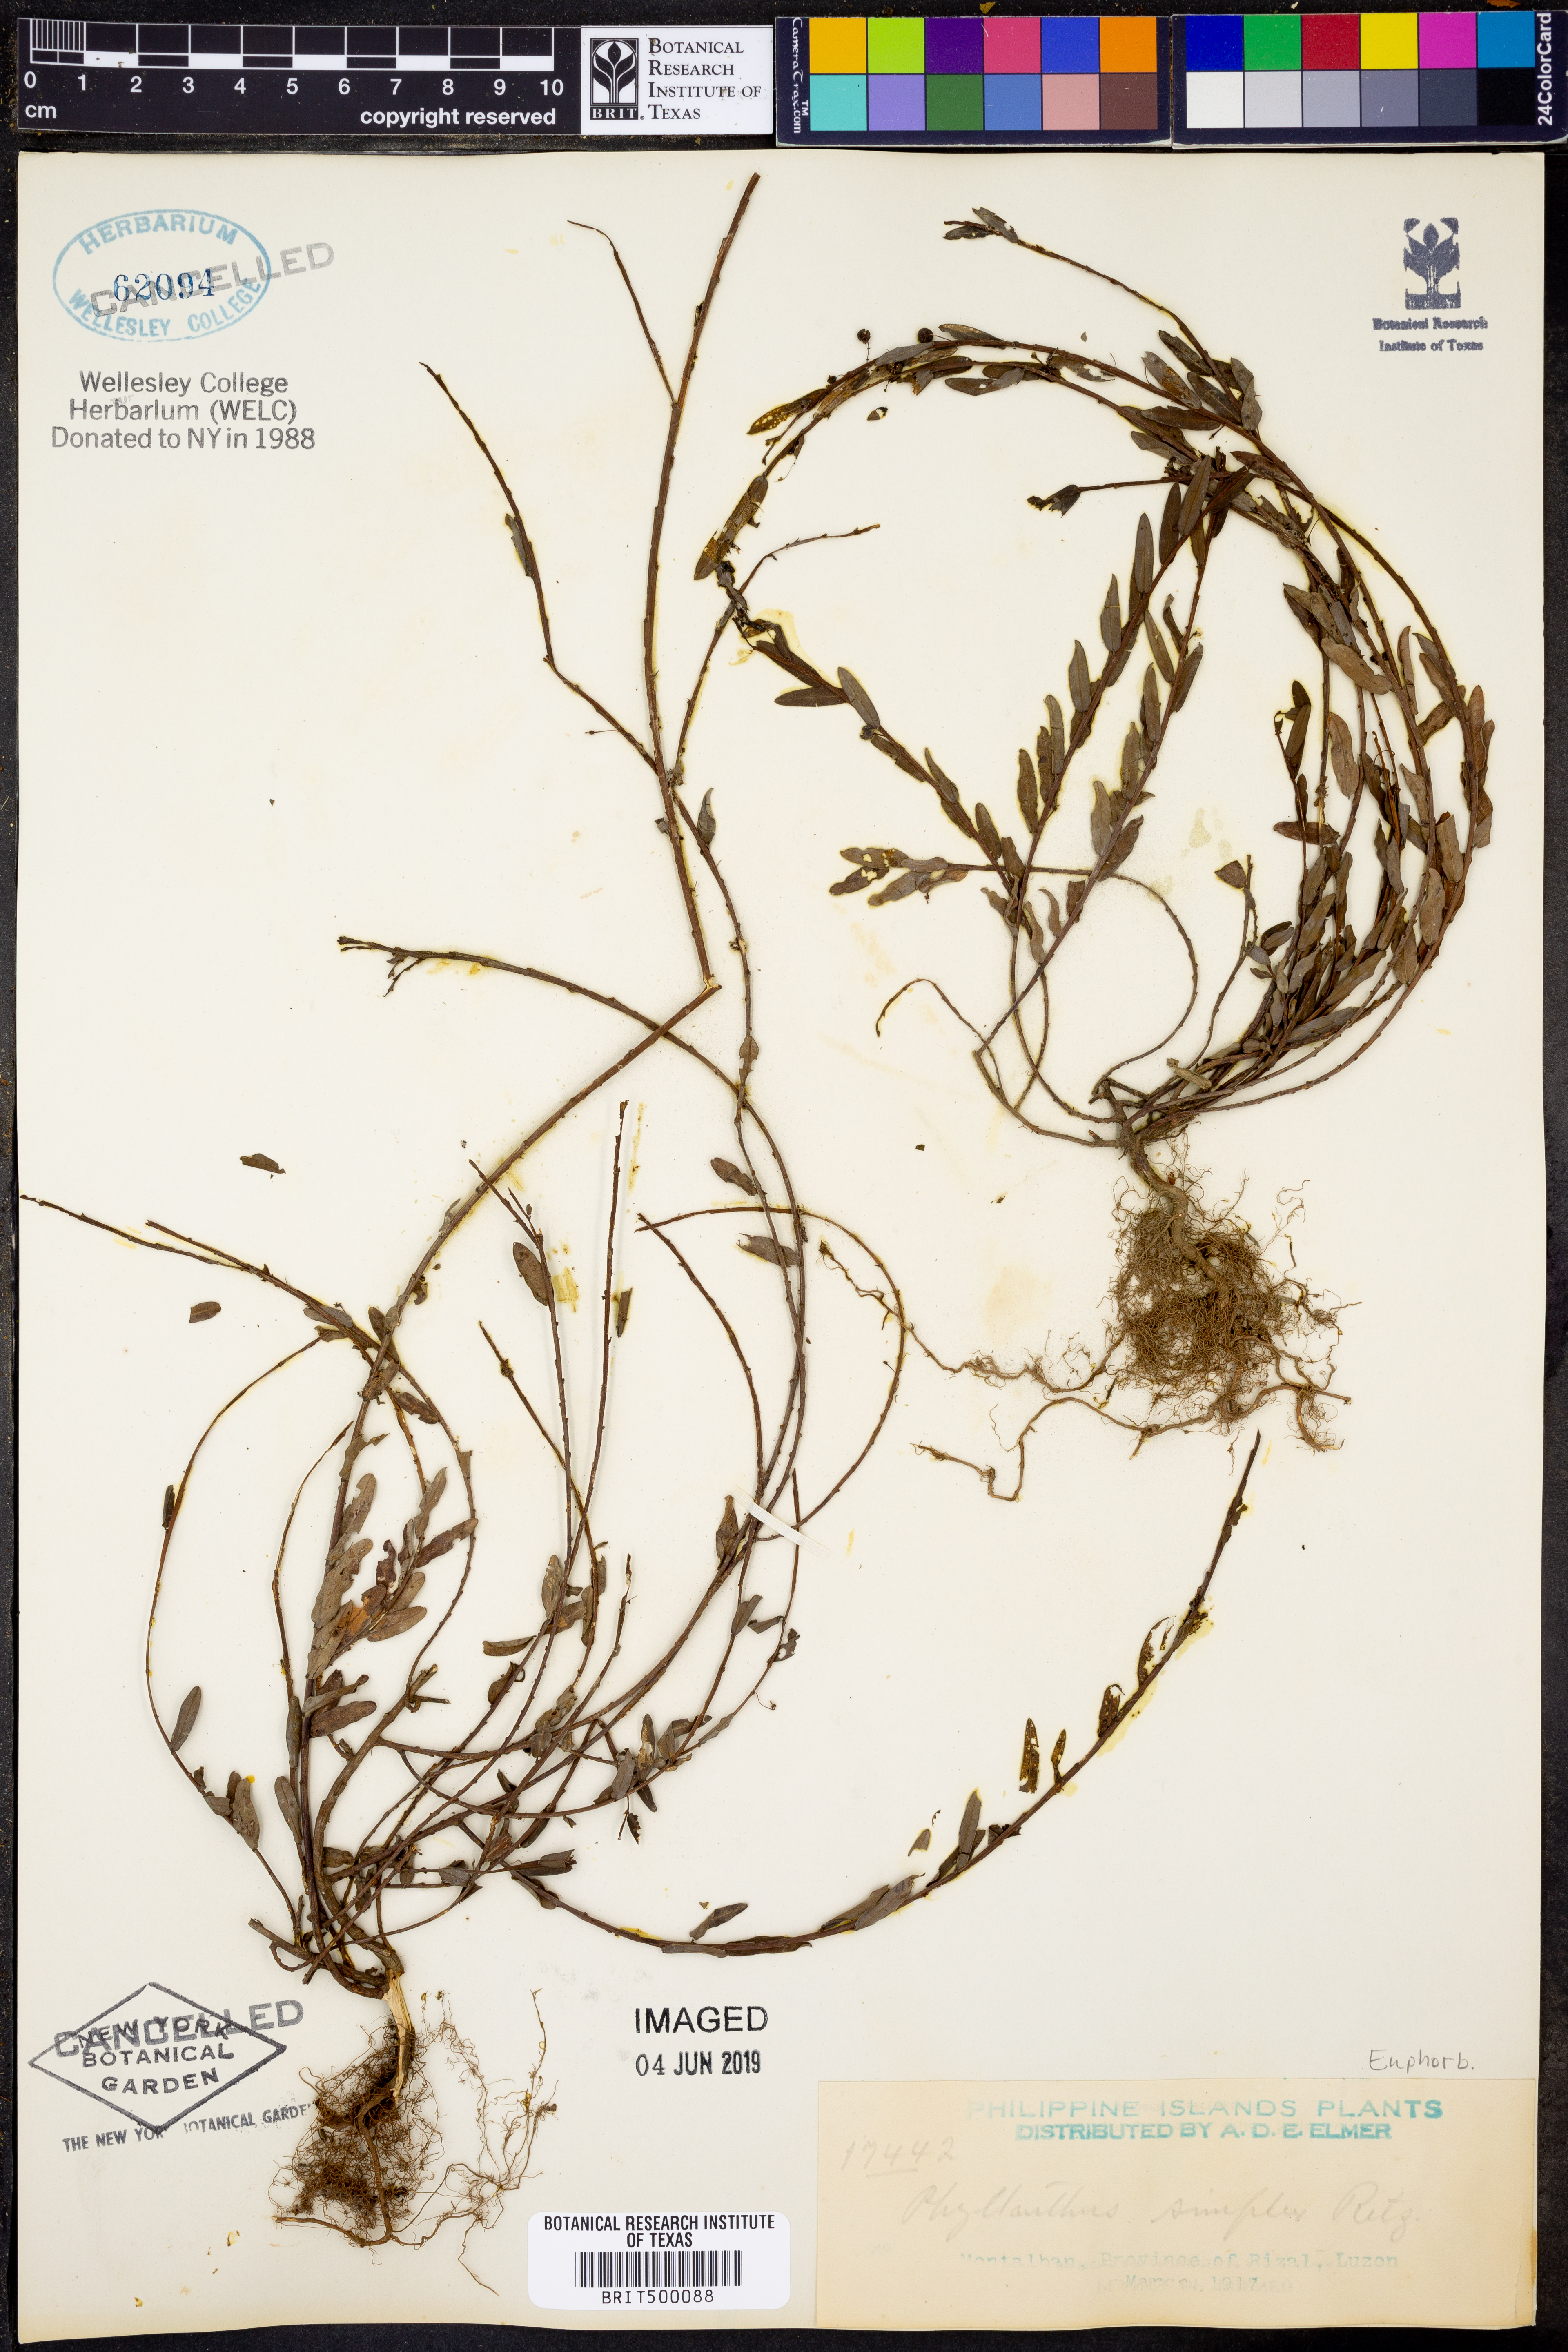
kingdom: Plantae
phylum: Tracheophyta
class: Magnoliopsida
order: Malpighiales
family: Phyllanthaceae
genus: Phyllanthus
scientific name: Phyllanthus virgatus
